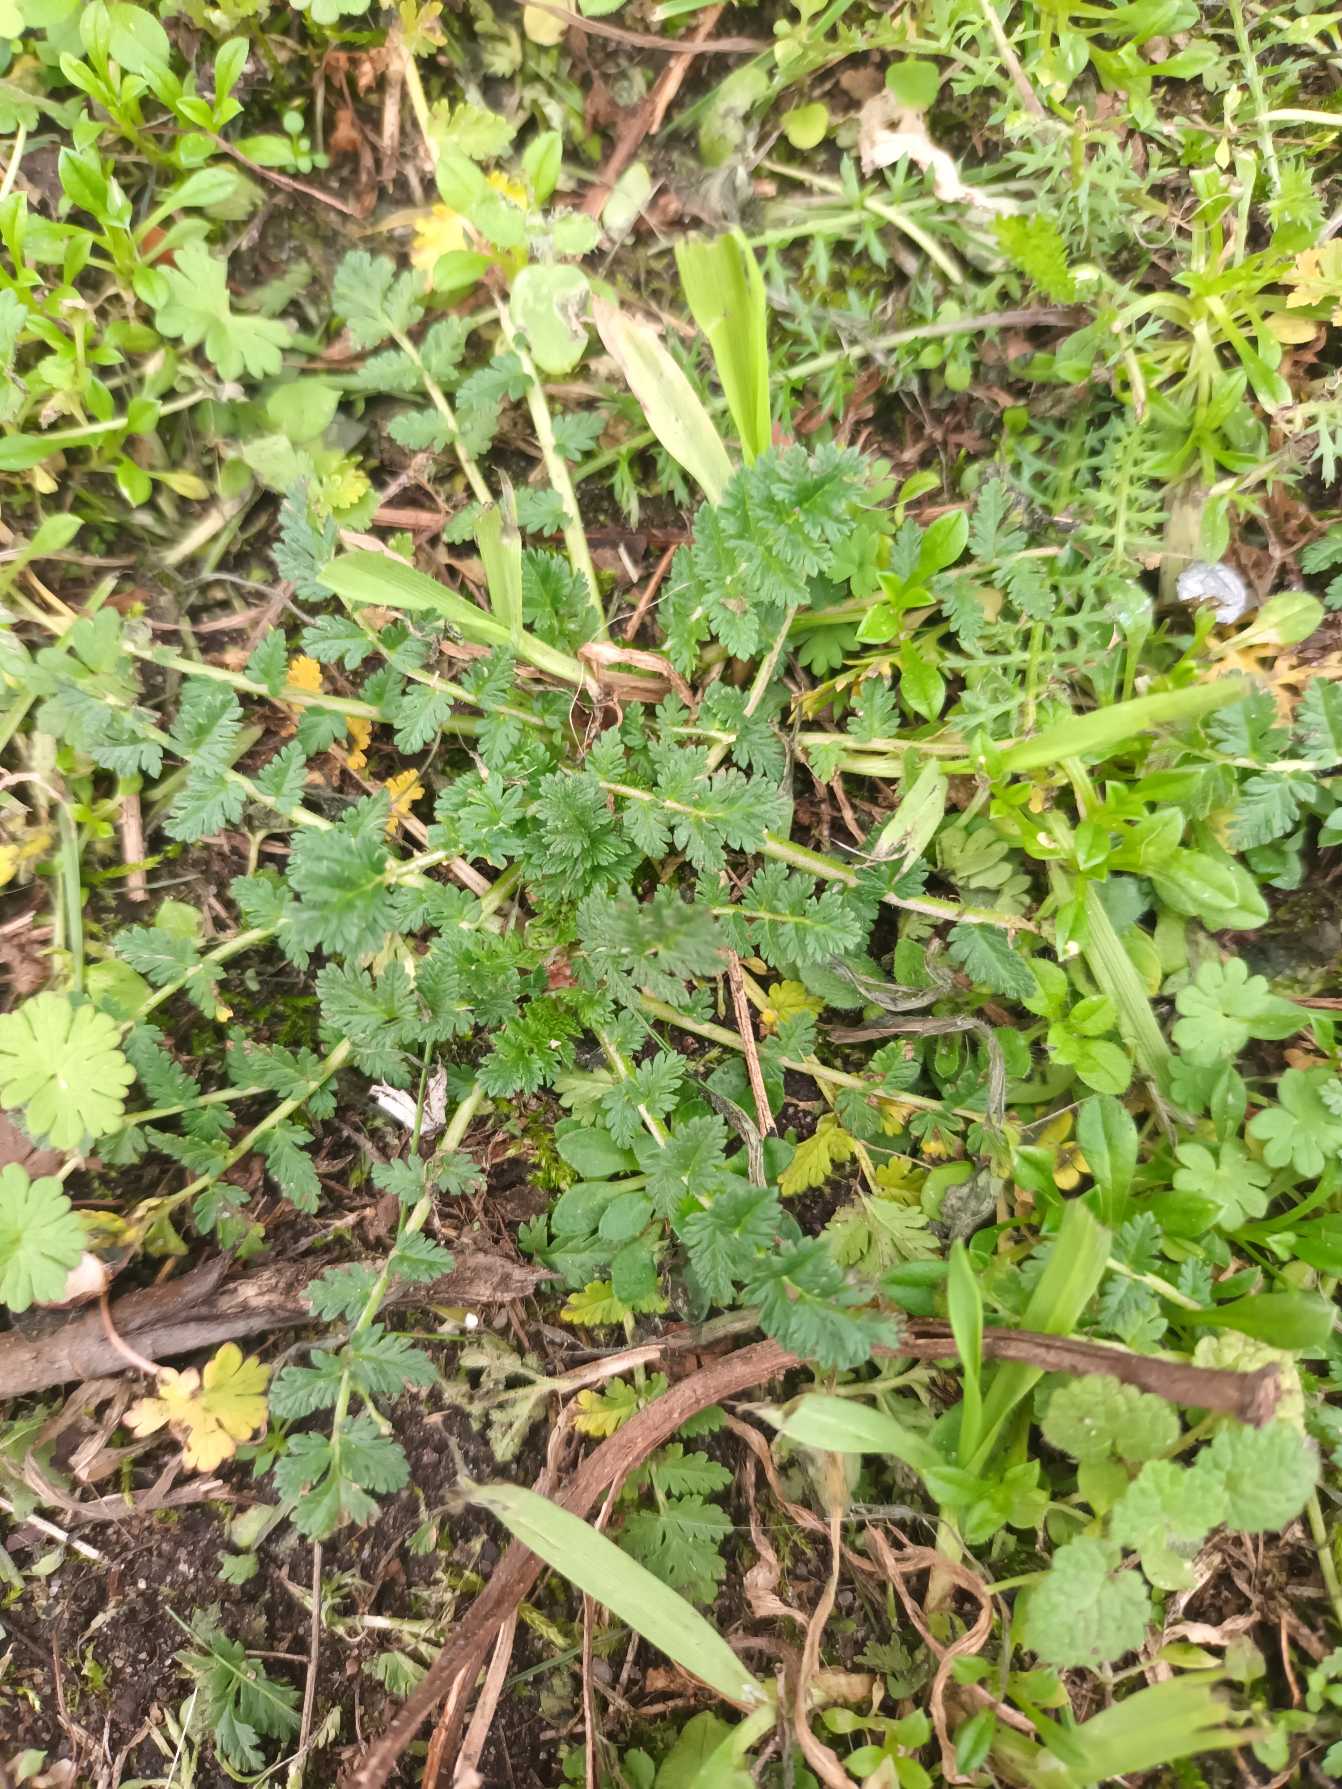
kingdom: Plantae
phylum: Tracheophyta
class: Magnoliopsida
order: Geraniales
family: Geraniaceae
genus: Erodium
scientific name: Erodium cicutarium
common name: Hejrenæb
